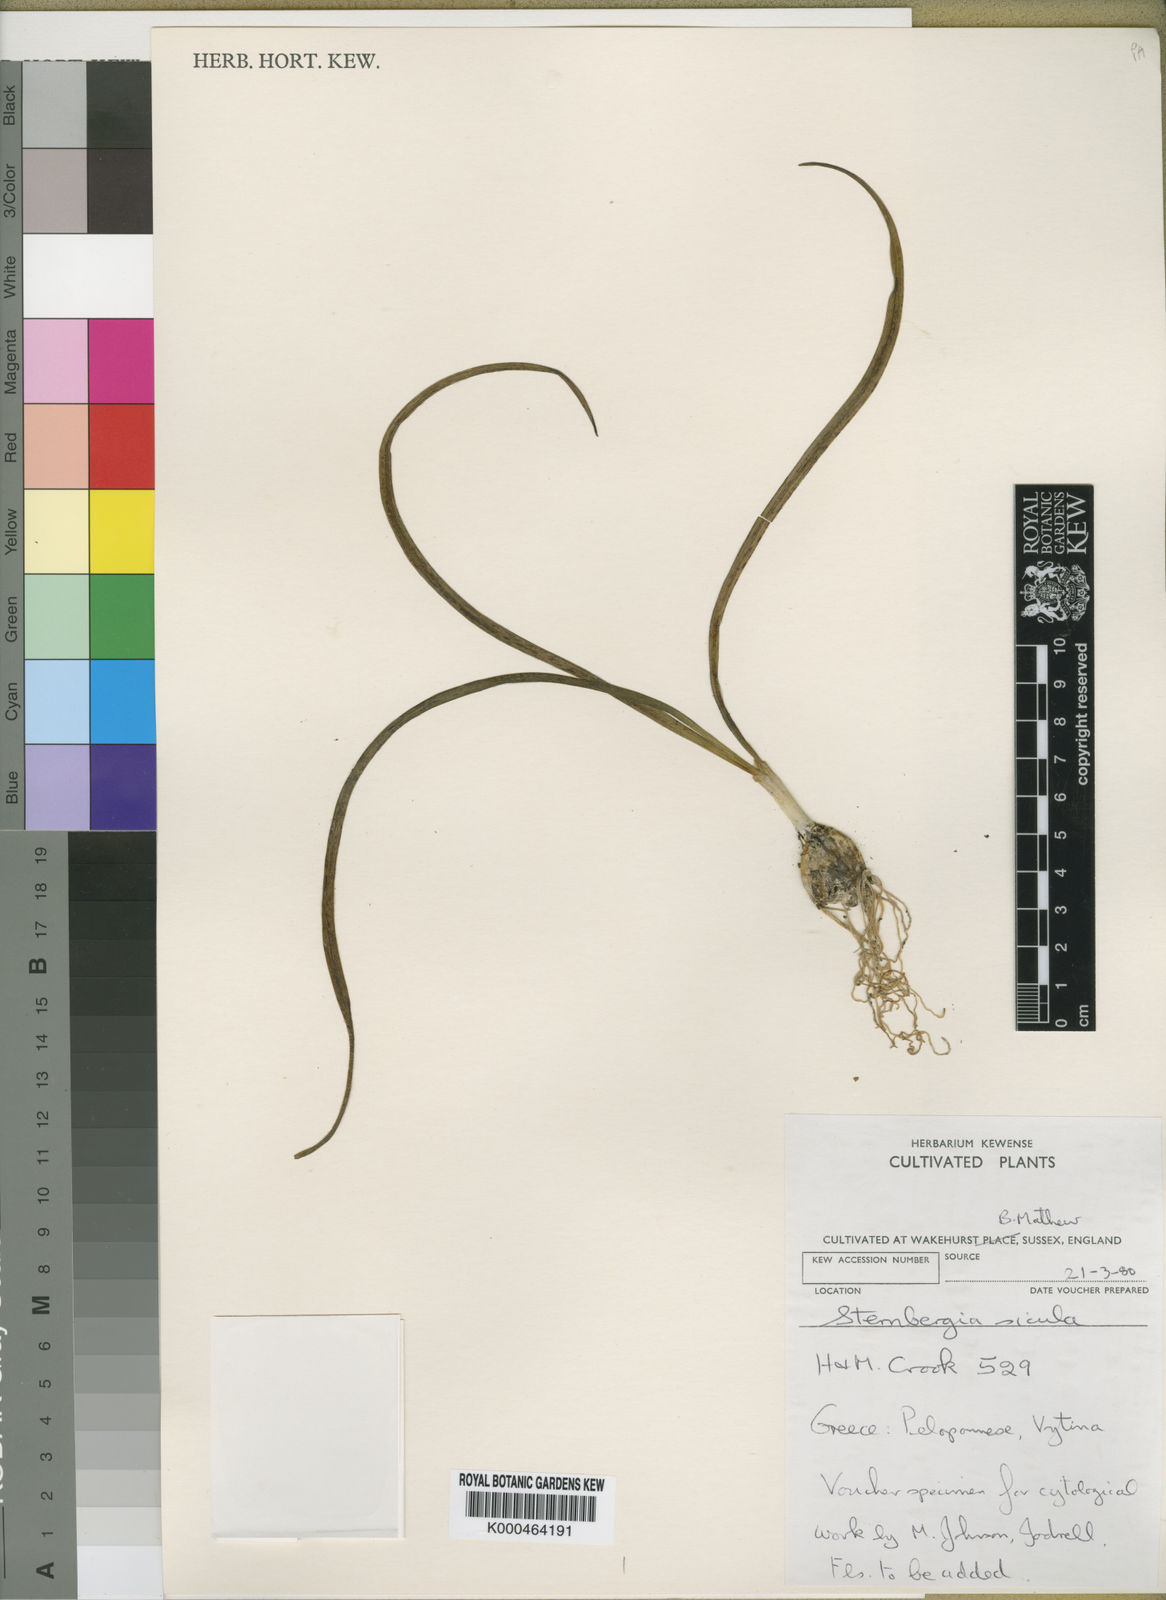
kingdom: Plantae
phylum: Tracheophyta
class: Liliopsida
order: Asparagales
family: Amaryllidaceae
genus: Sternbergia
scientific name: Sternbergia
